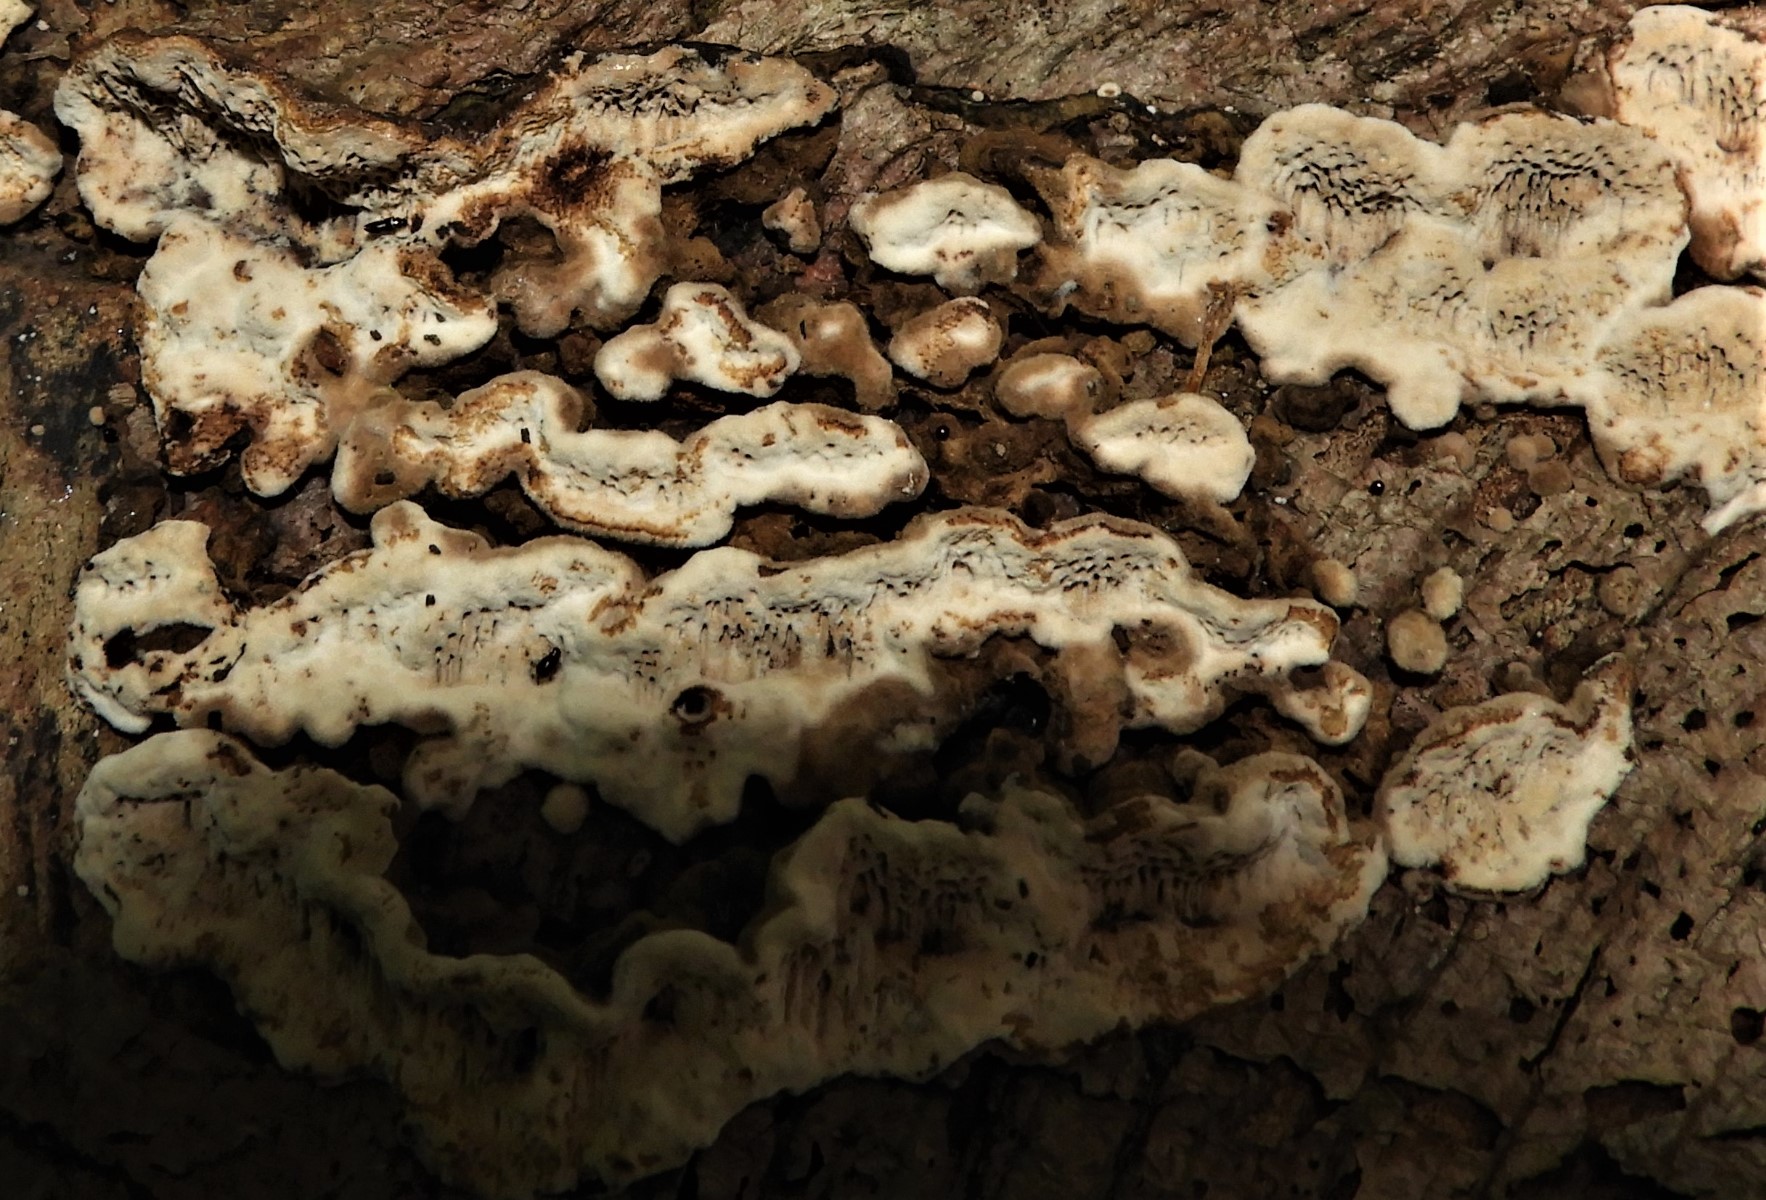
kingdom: Fungi
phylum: Basidiomycota
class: Agaricomycetes
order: Polyporales
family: Polyporaceae
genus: Podofomes
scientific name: Podofomes mollis
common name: blød begporesvamp
